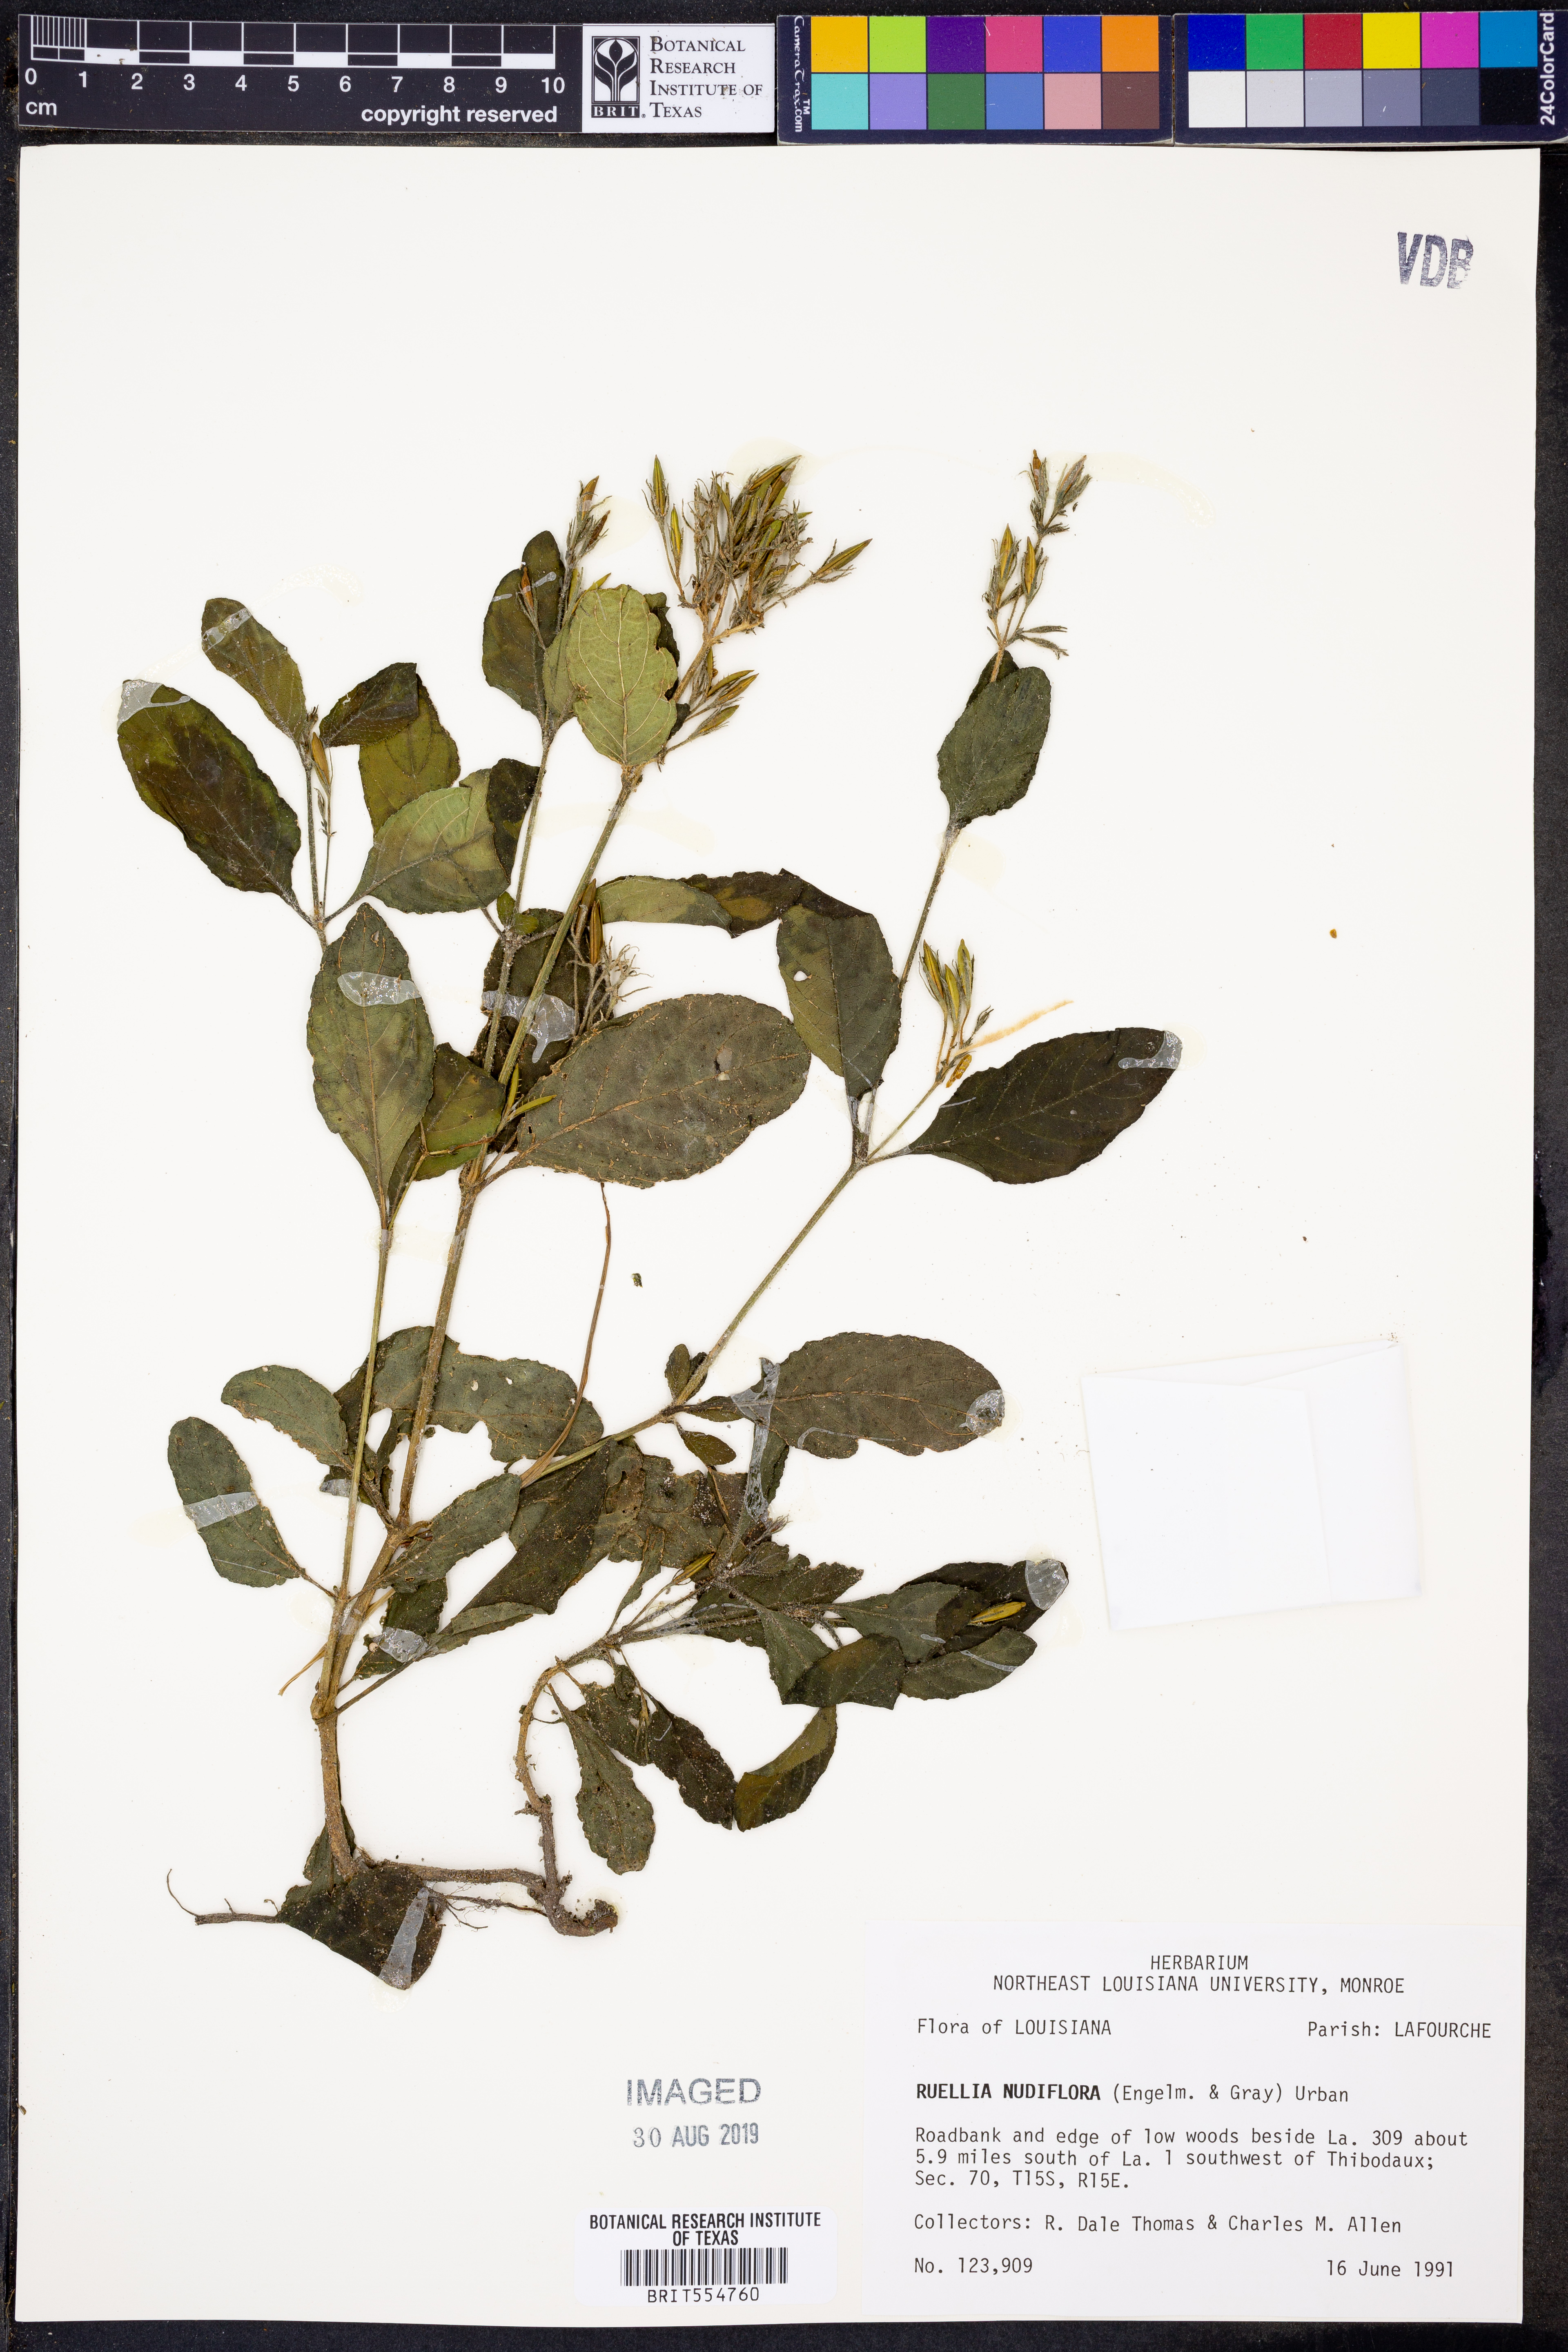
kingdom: Plantae
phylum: Tracheophyta
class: Magnoliopsida
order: Lamiales
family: Acanthaceae
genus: Ruellia
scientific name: Ruellia ciliatiflora
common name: Hairyflower wild petunia
